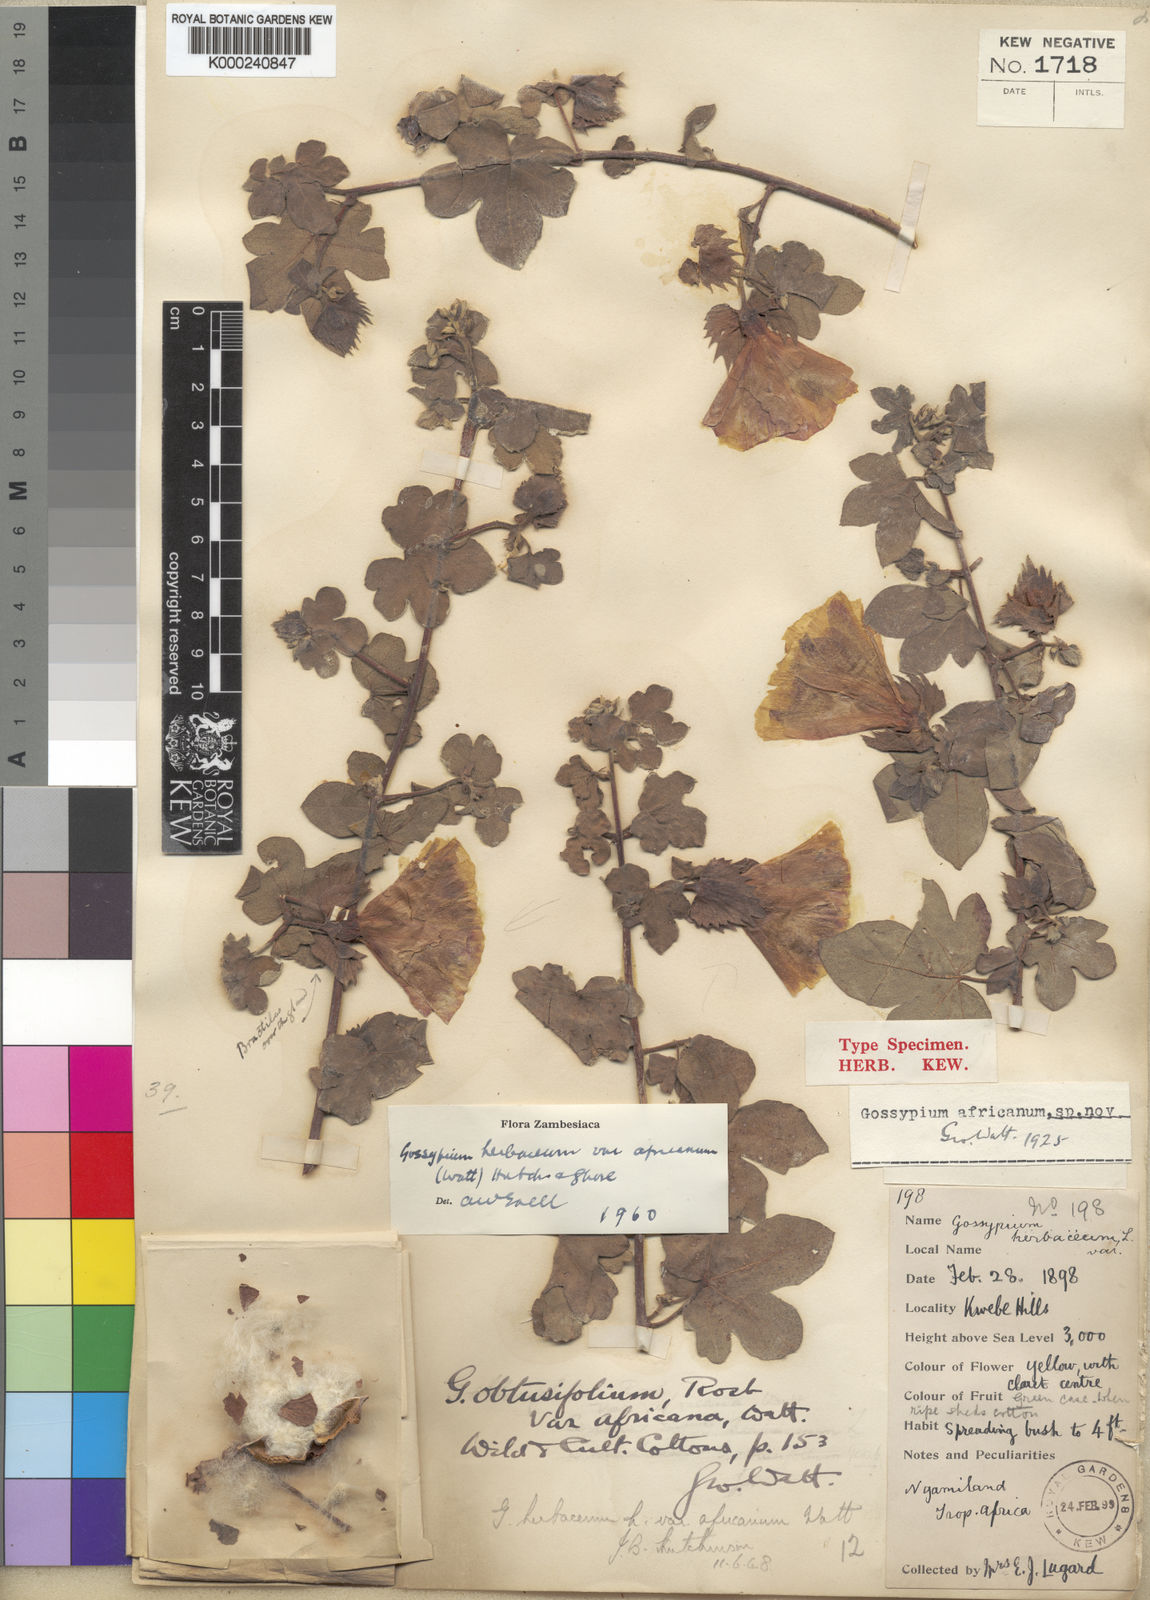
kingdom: Plantae
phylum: Tracheophyta
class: Magnoliopsida
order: Malvales
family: Malvaceae
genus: Gossypium
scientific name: Gossypium herbaceum
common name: Levant cotton
